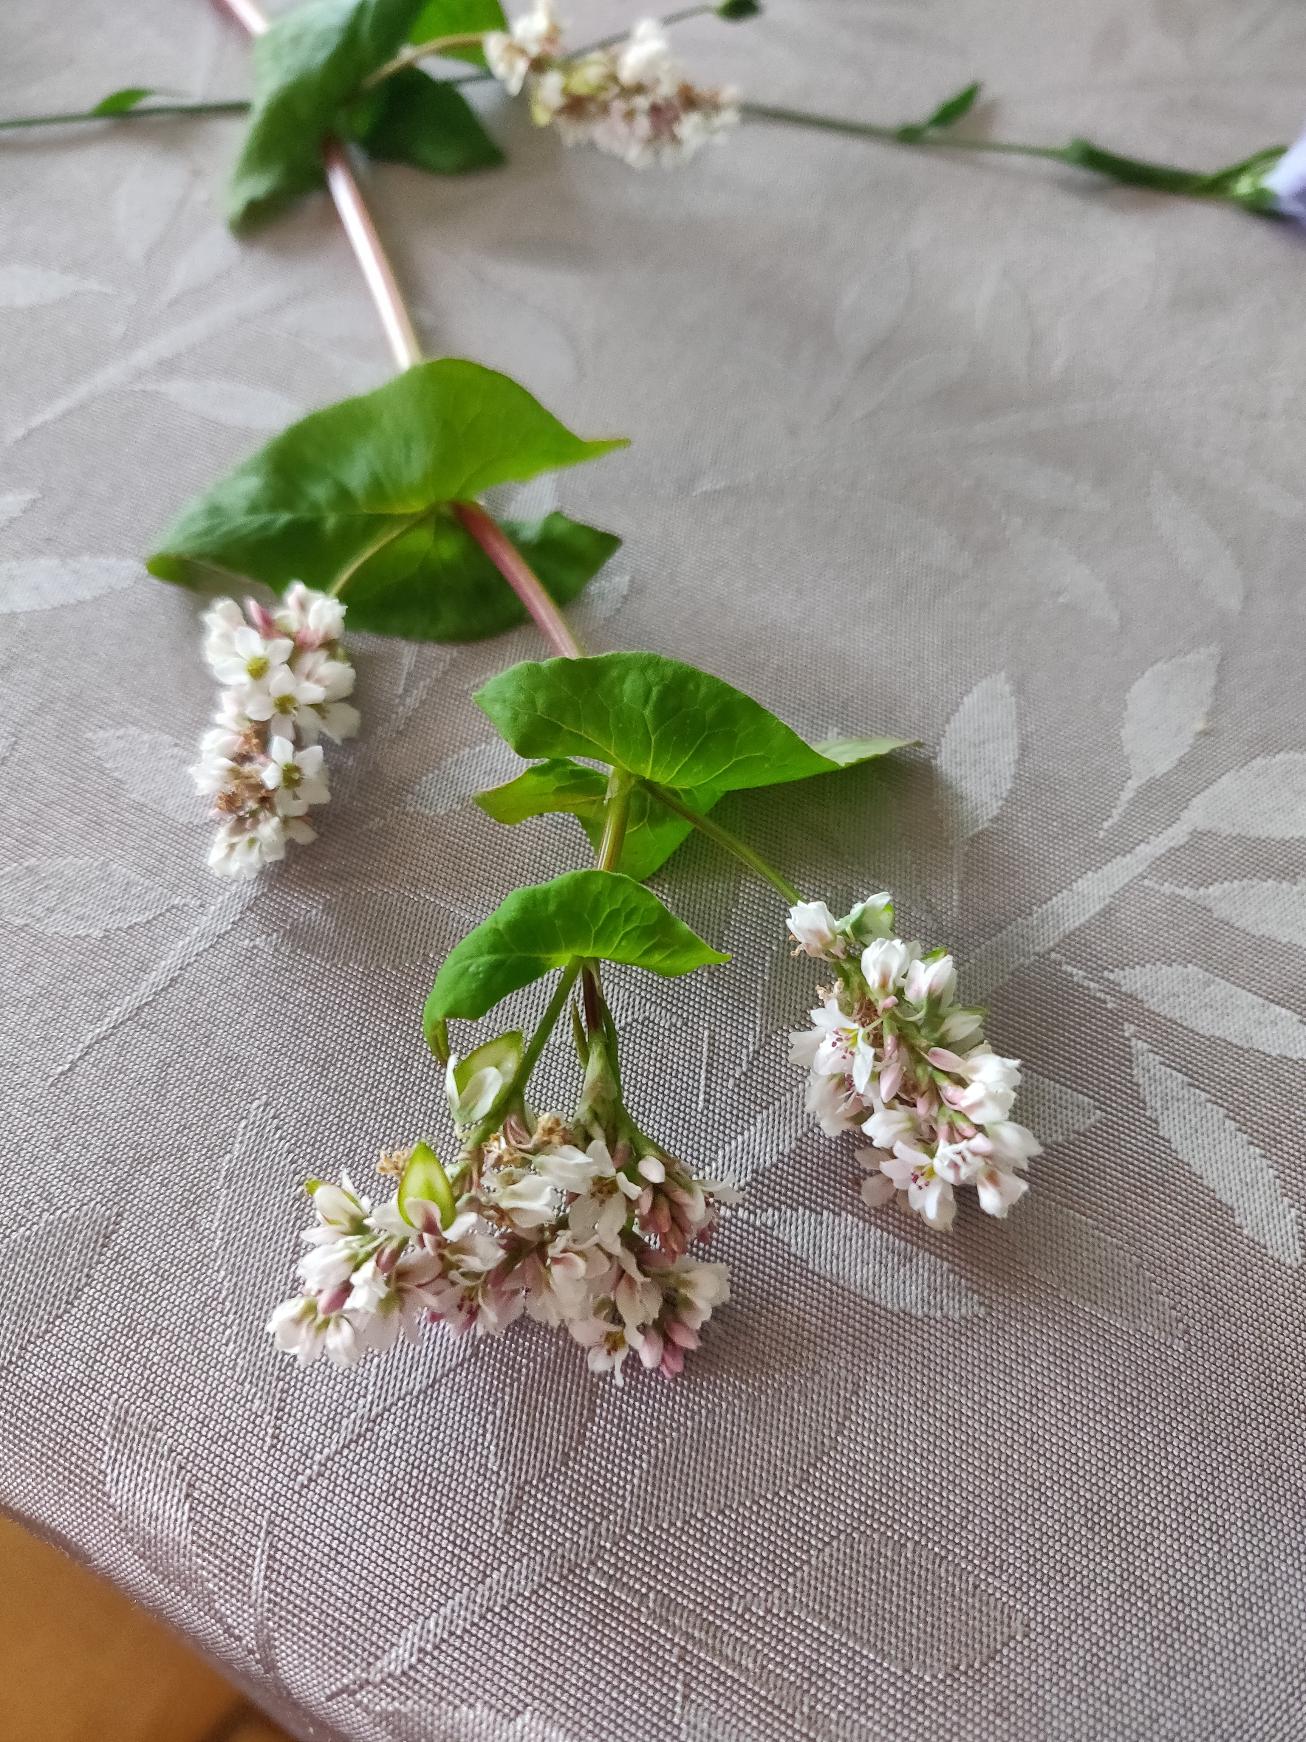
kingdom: Plantae
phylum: Tracheophyta
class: Magnoliopsida
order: Caryophyllales
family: Polygonaceae
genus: Fagopyrum
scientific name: Fagopyrum esculentum
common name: Almindelig boghvede
